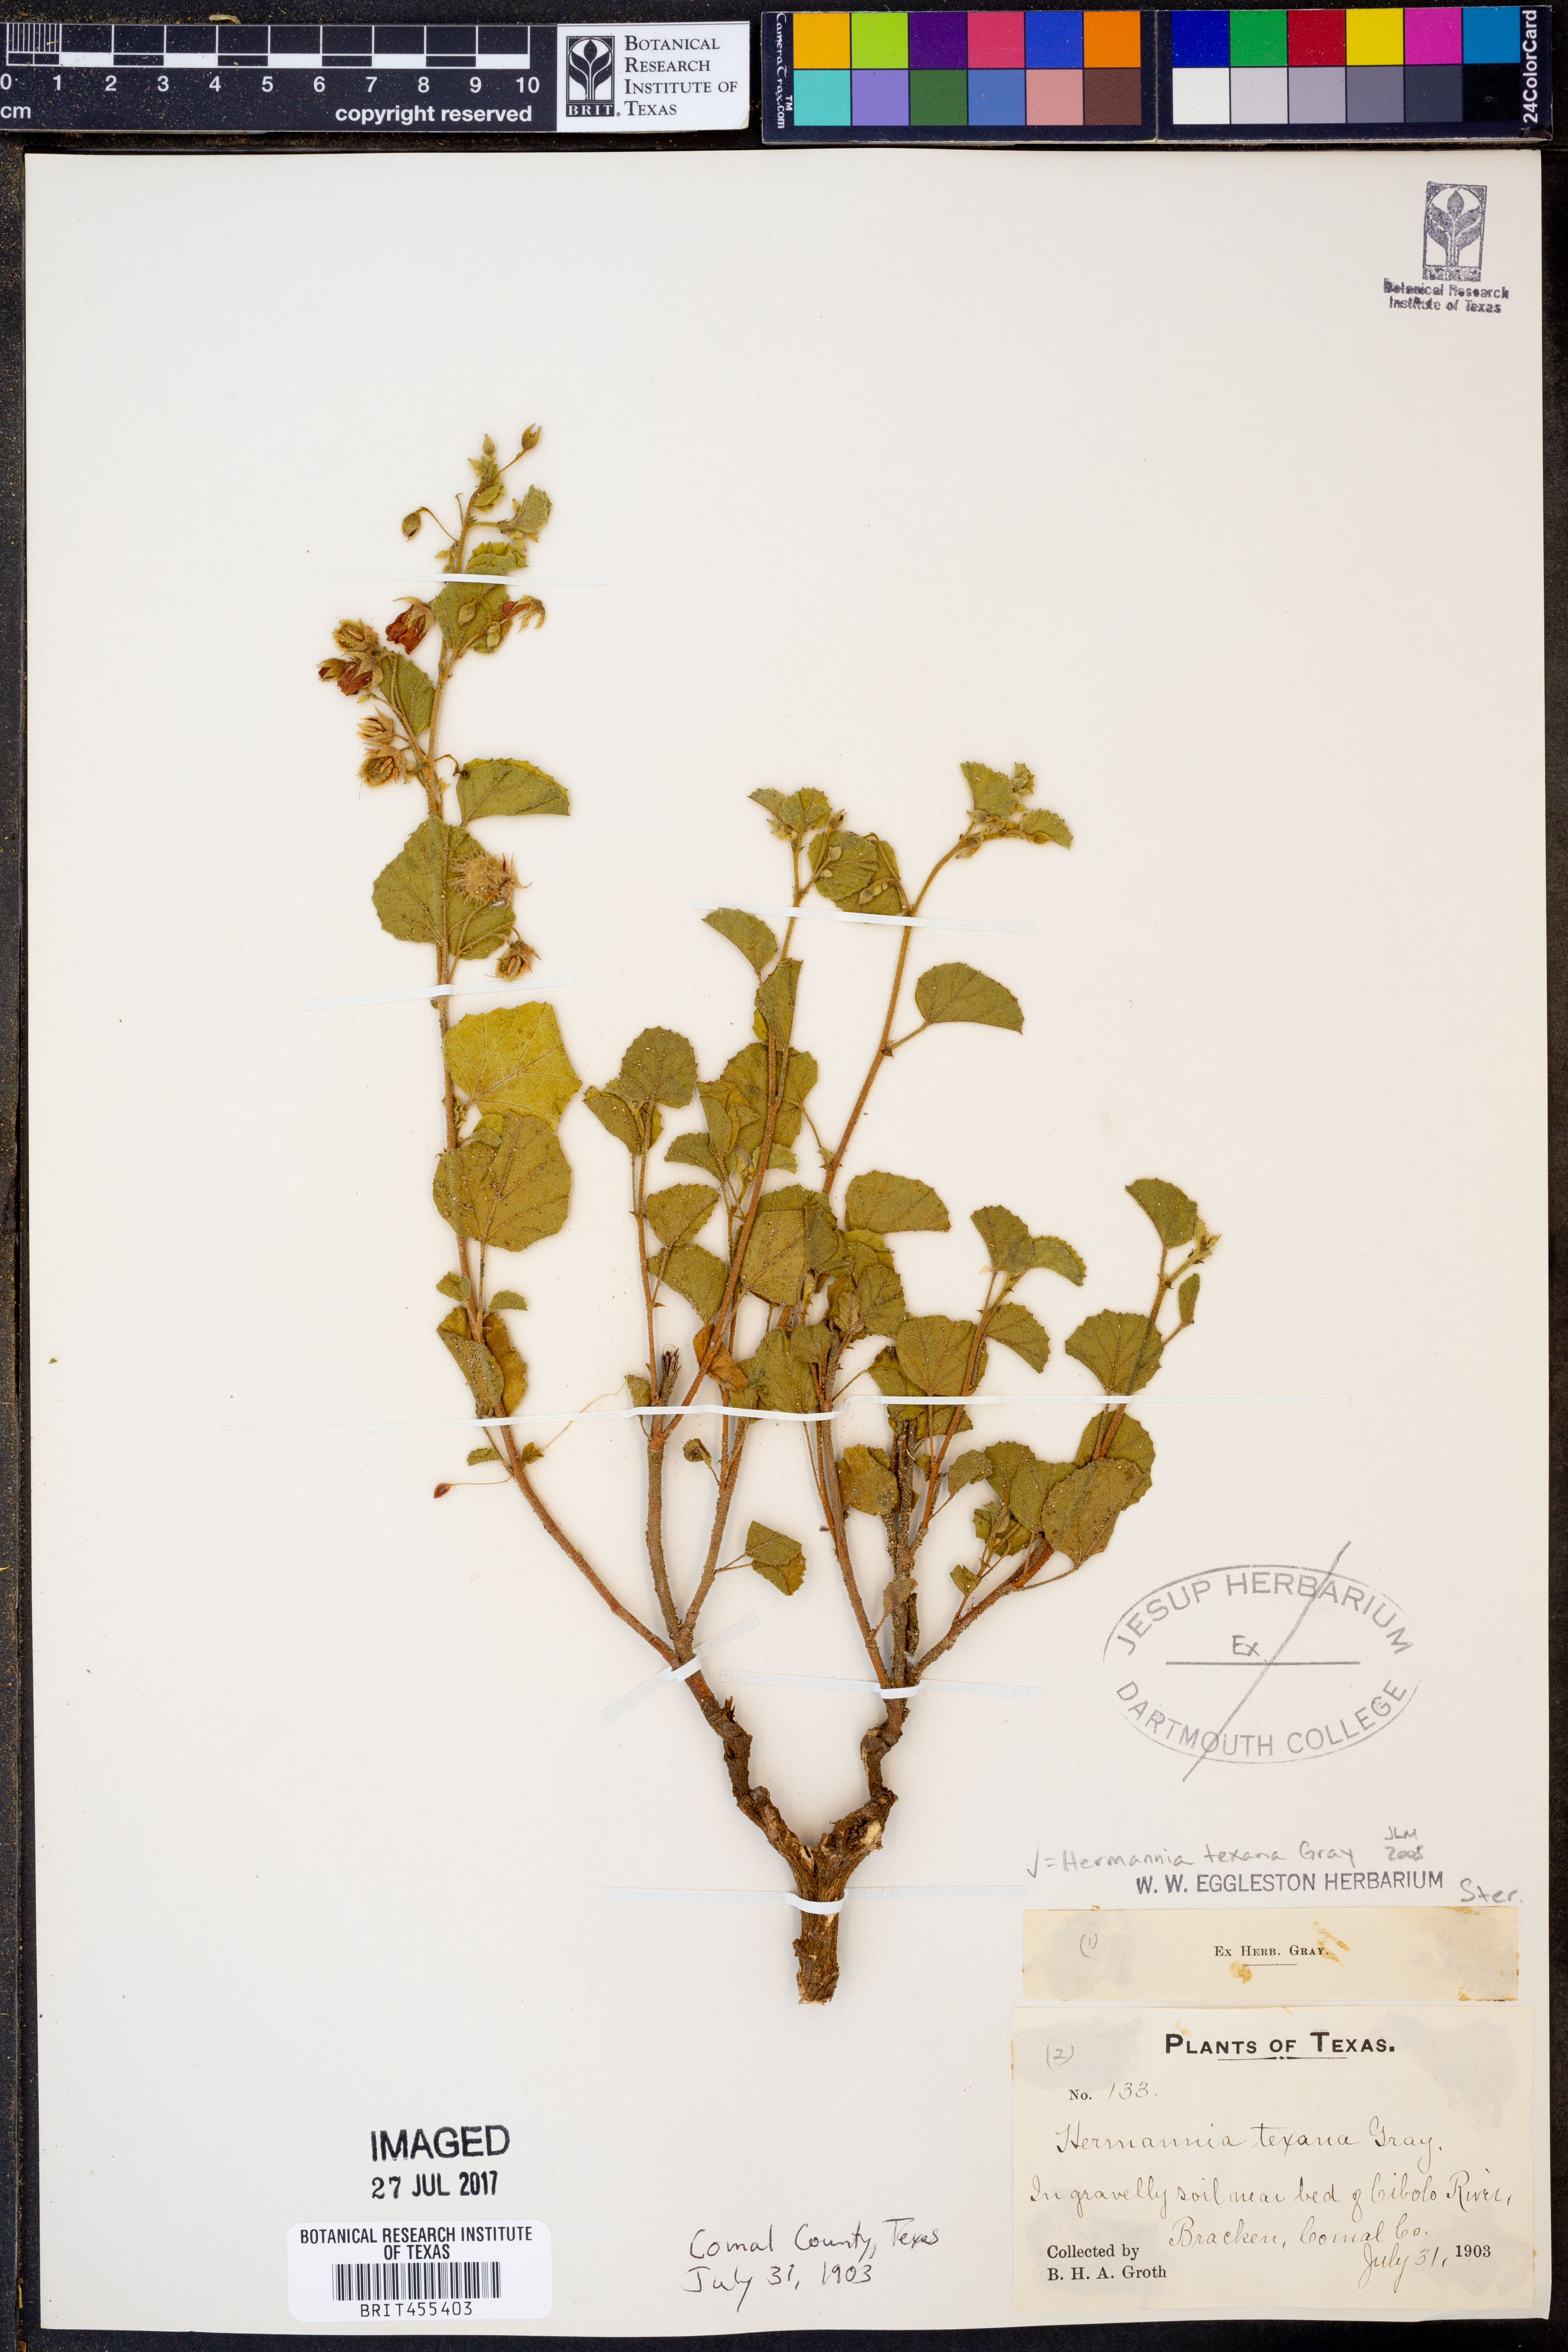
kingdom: Plantae
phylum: Tracheophyta
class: Magnoliopsida
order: Malvales
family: Malvaceae
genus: Hermannia
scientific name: Hermannia texana
